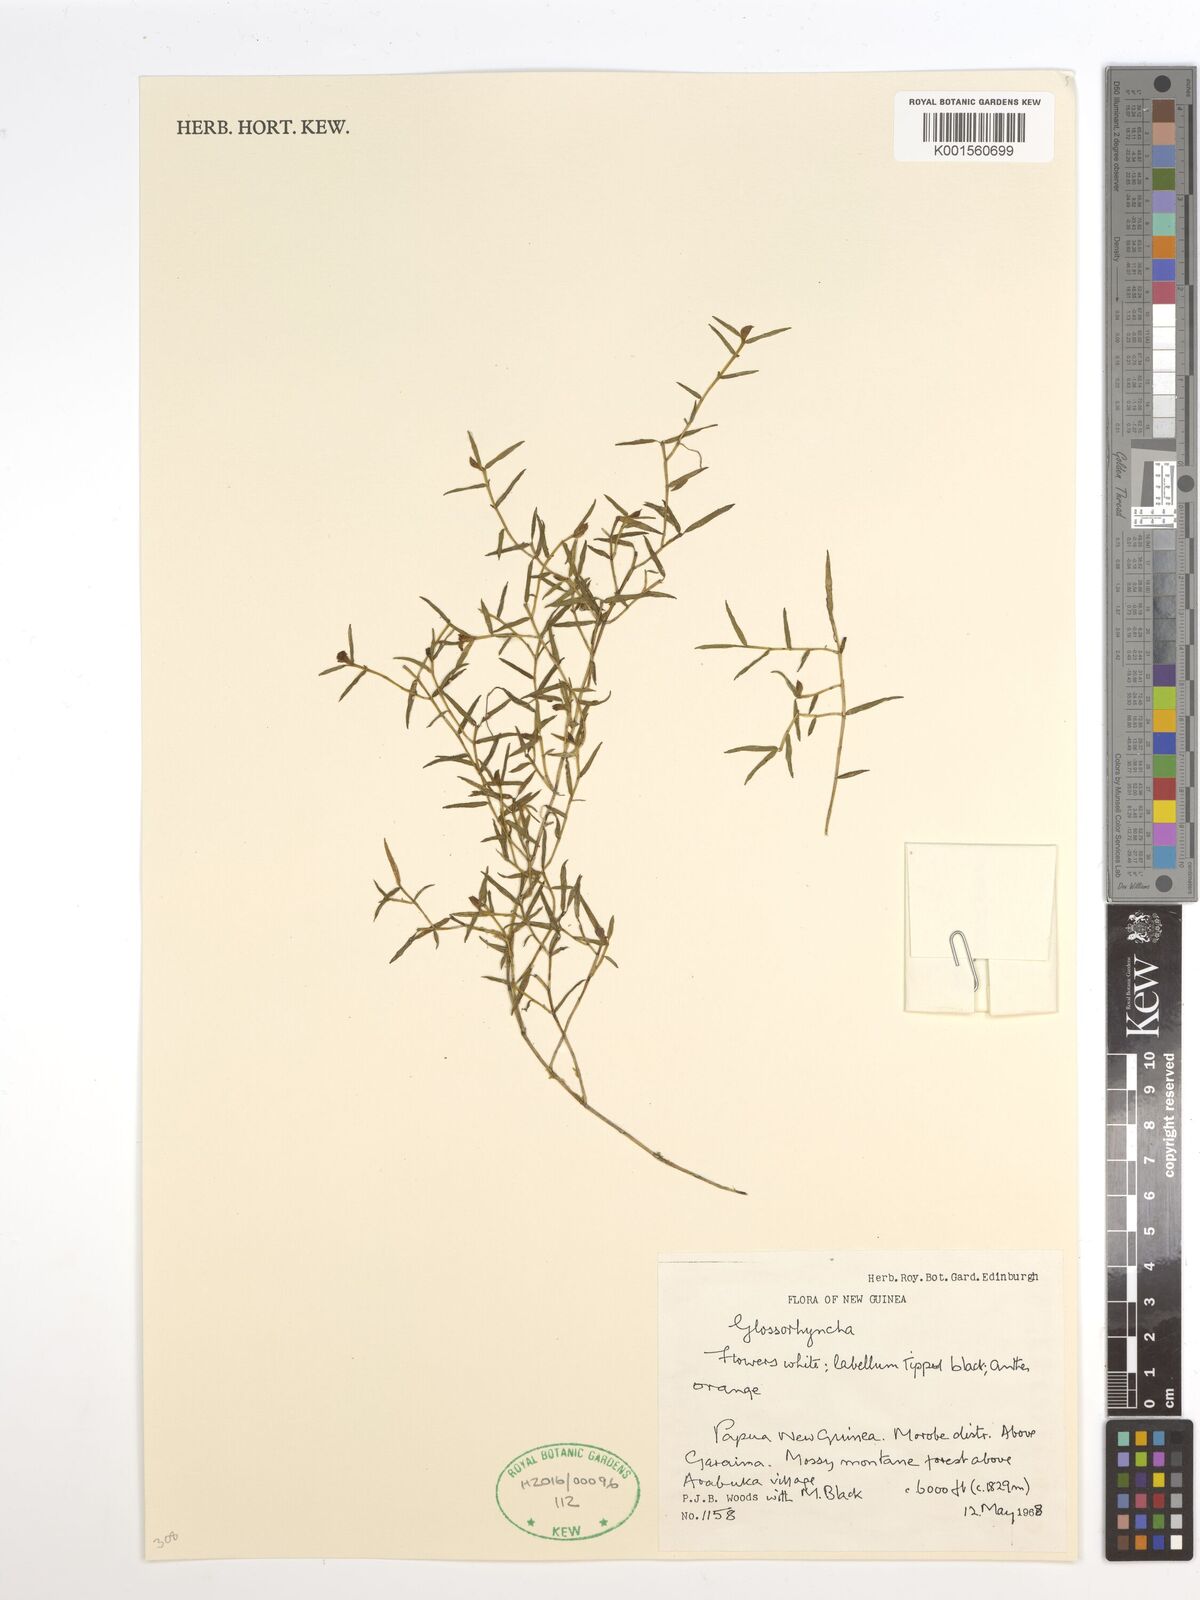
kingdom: Plantae
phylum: Tracheophyta
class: Liliopsida
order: Asparagales
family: Orchidaceae
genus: Glomera
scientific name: Glomera
